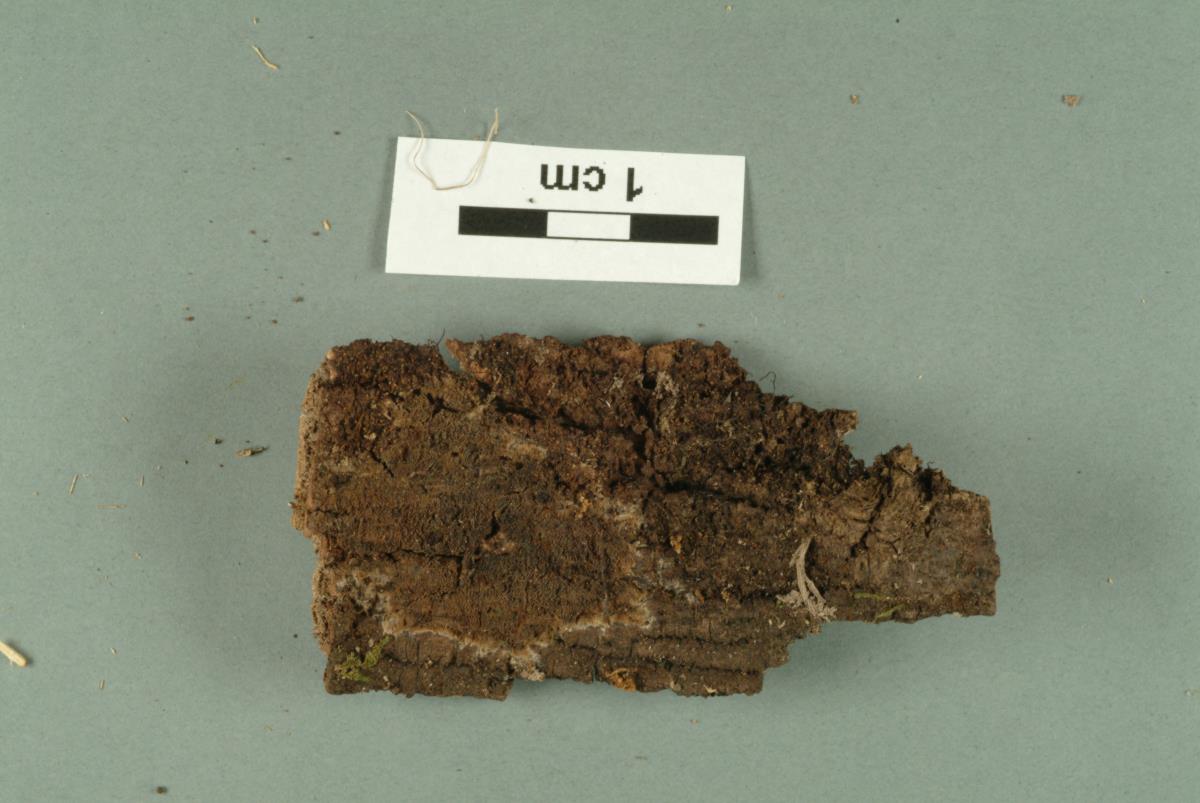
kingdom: Fungi
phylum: Basidiomycota
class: Agaricomycetes
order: Polyporales
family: Meruliaceae
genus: Phlebia
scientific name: Phlebia subfascicularis
